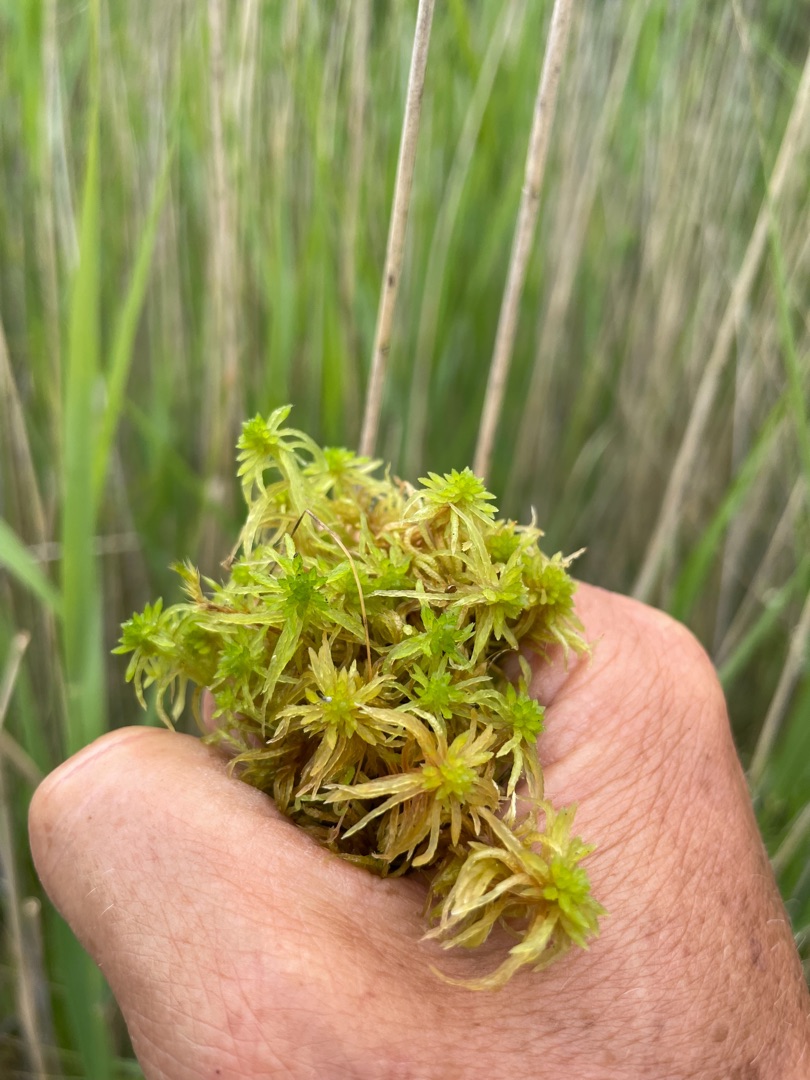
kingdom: Plantae
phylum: Bryophyta
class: Sphagnopsida
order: Sphagnales
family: Sphagnaceae
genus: Sphagnum
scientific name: Sphagnum teres
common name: Trindgrenet tørvemos
